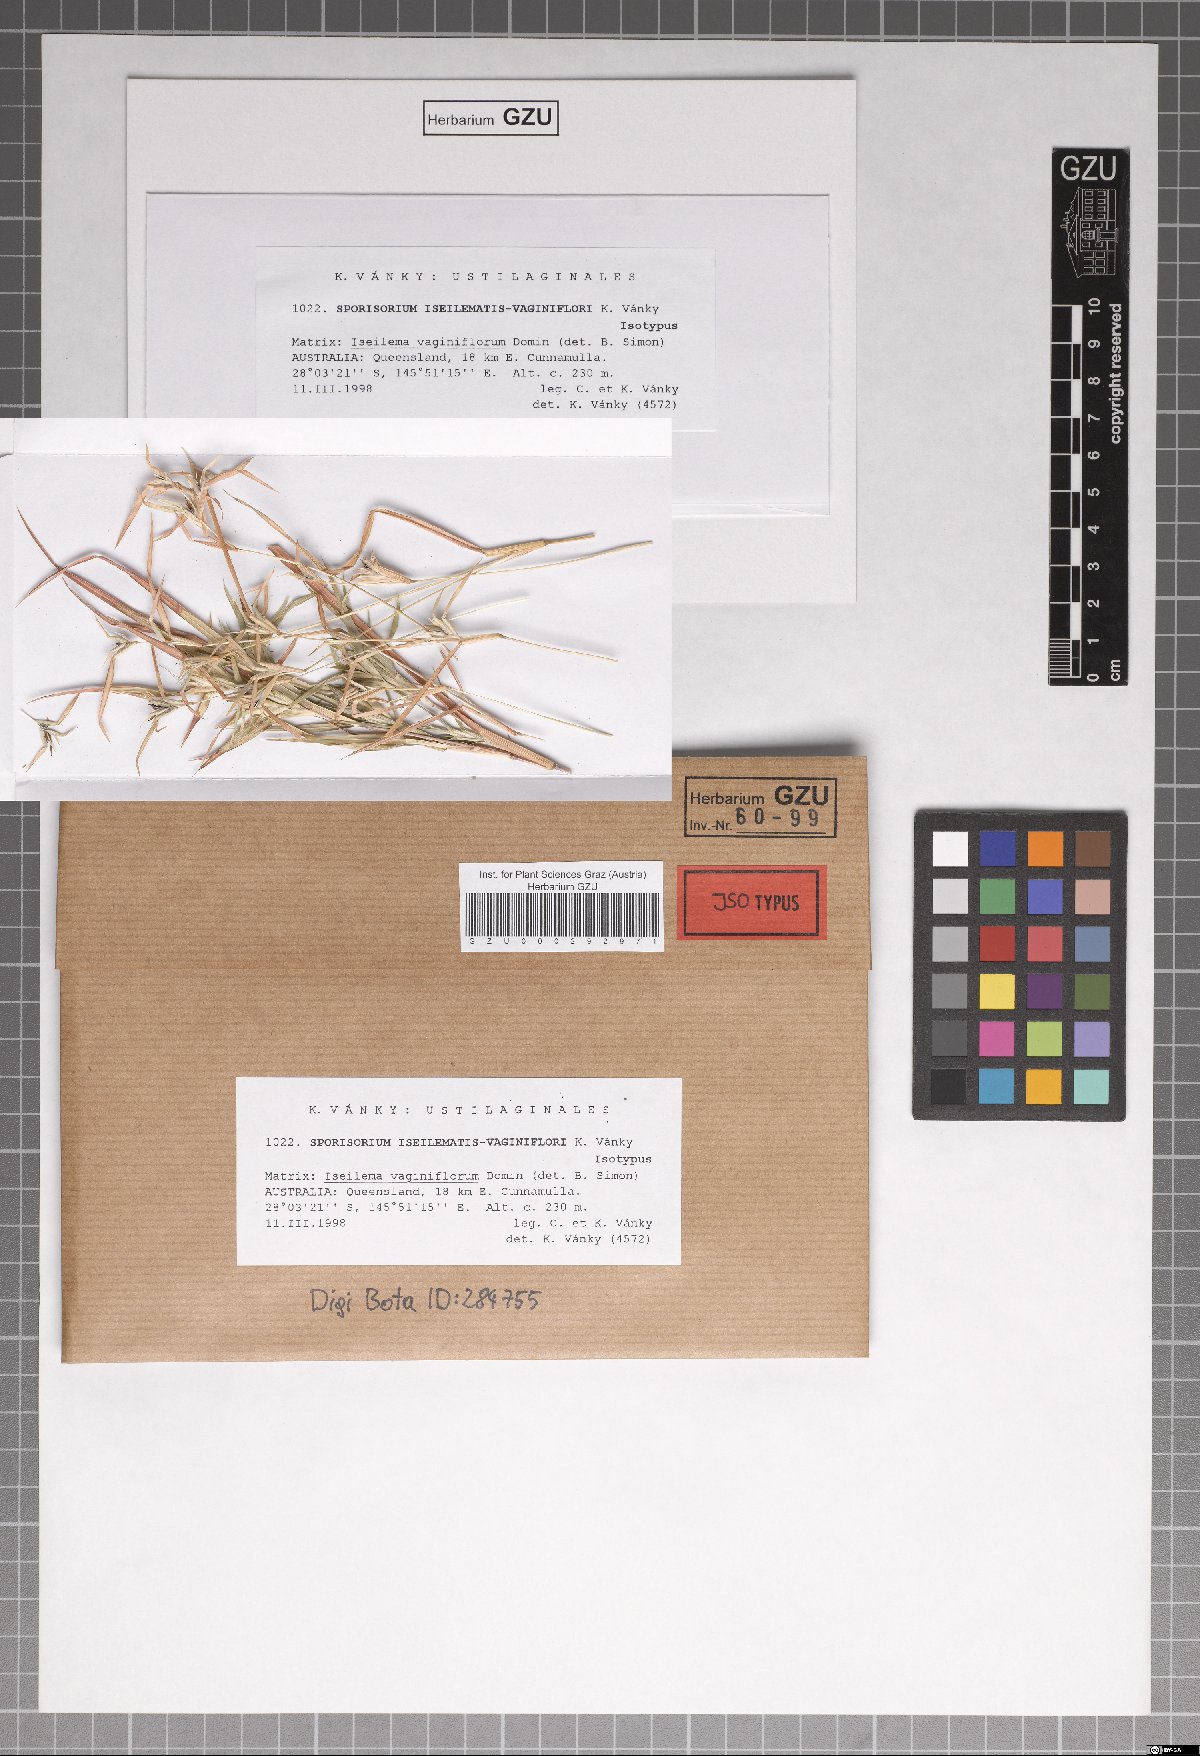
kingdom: Fungi
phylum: Basidiomycota
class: Ustilaginomycetes
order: Ustilaginales
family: Ustilaginaceae
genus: Sporisorium
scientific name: Sporisorium iseilematis-vaginiflori
